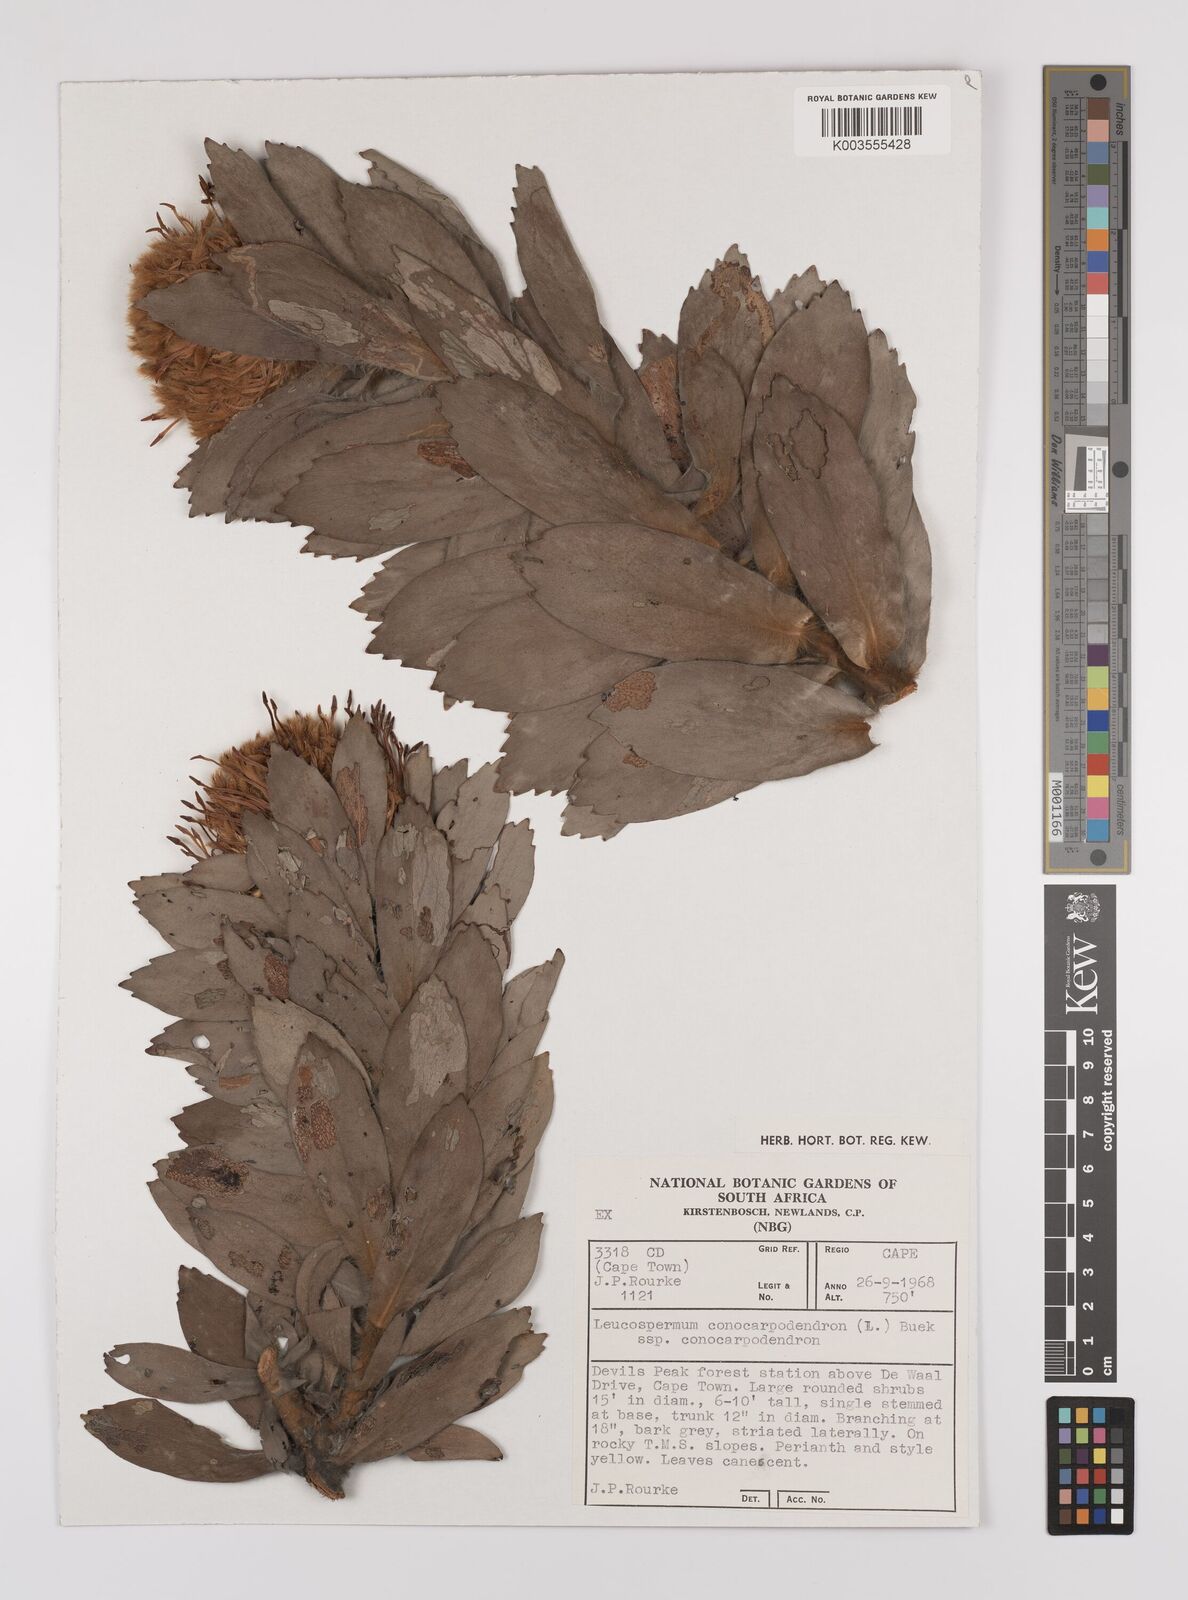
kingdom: Plantae
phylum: Tracheophyta
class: Magnoliopsida
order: Proteales
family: Proteaceae
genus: Leucospermum
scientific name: Leucospermum conocarpodendron
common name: Tree pincushion
